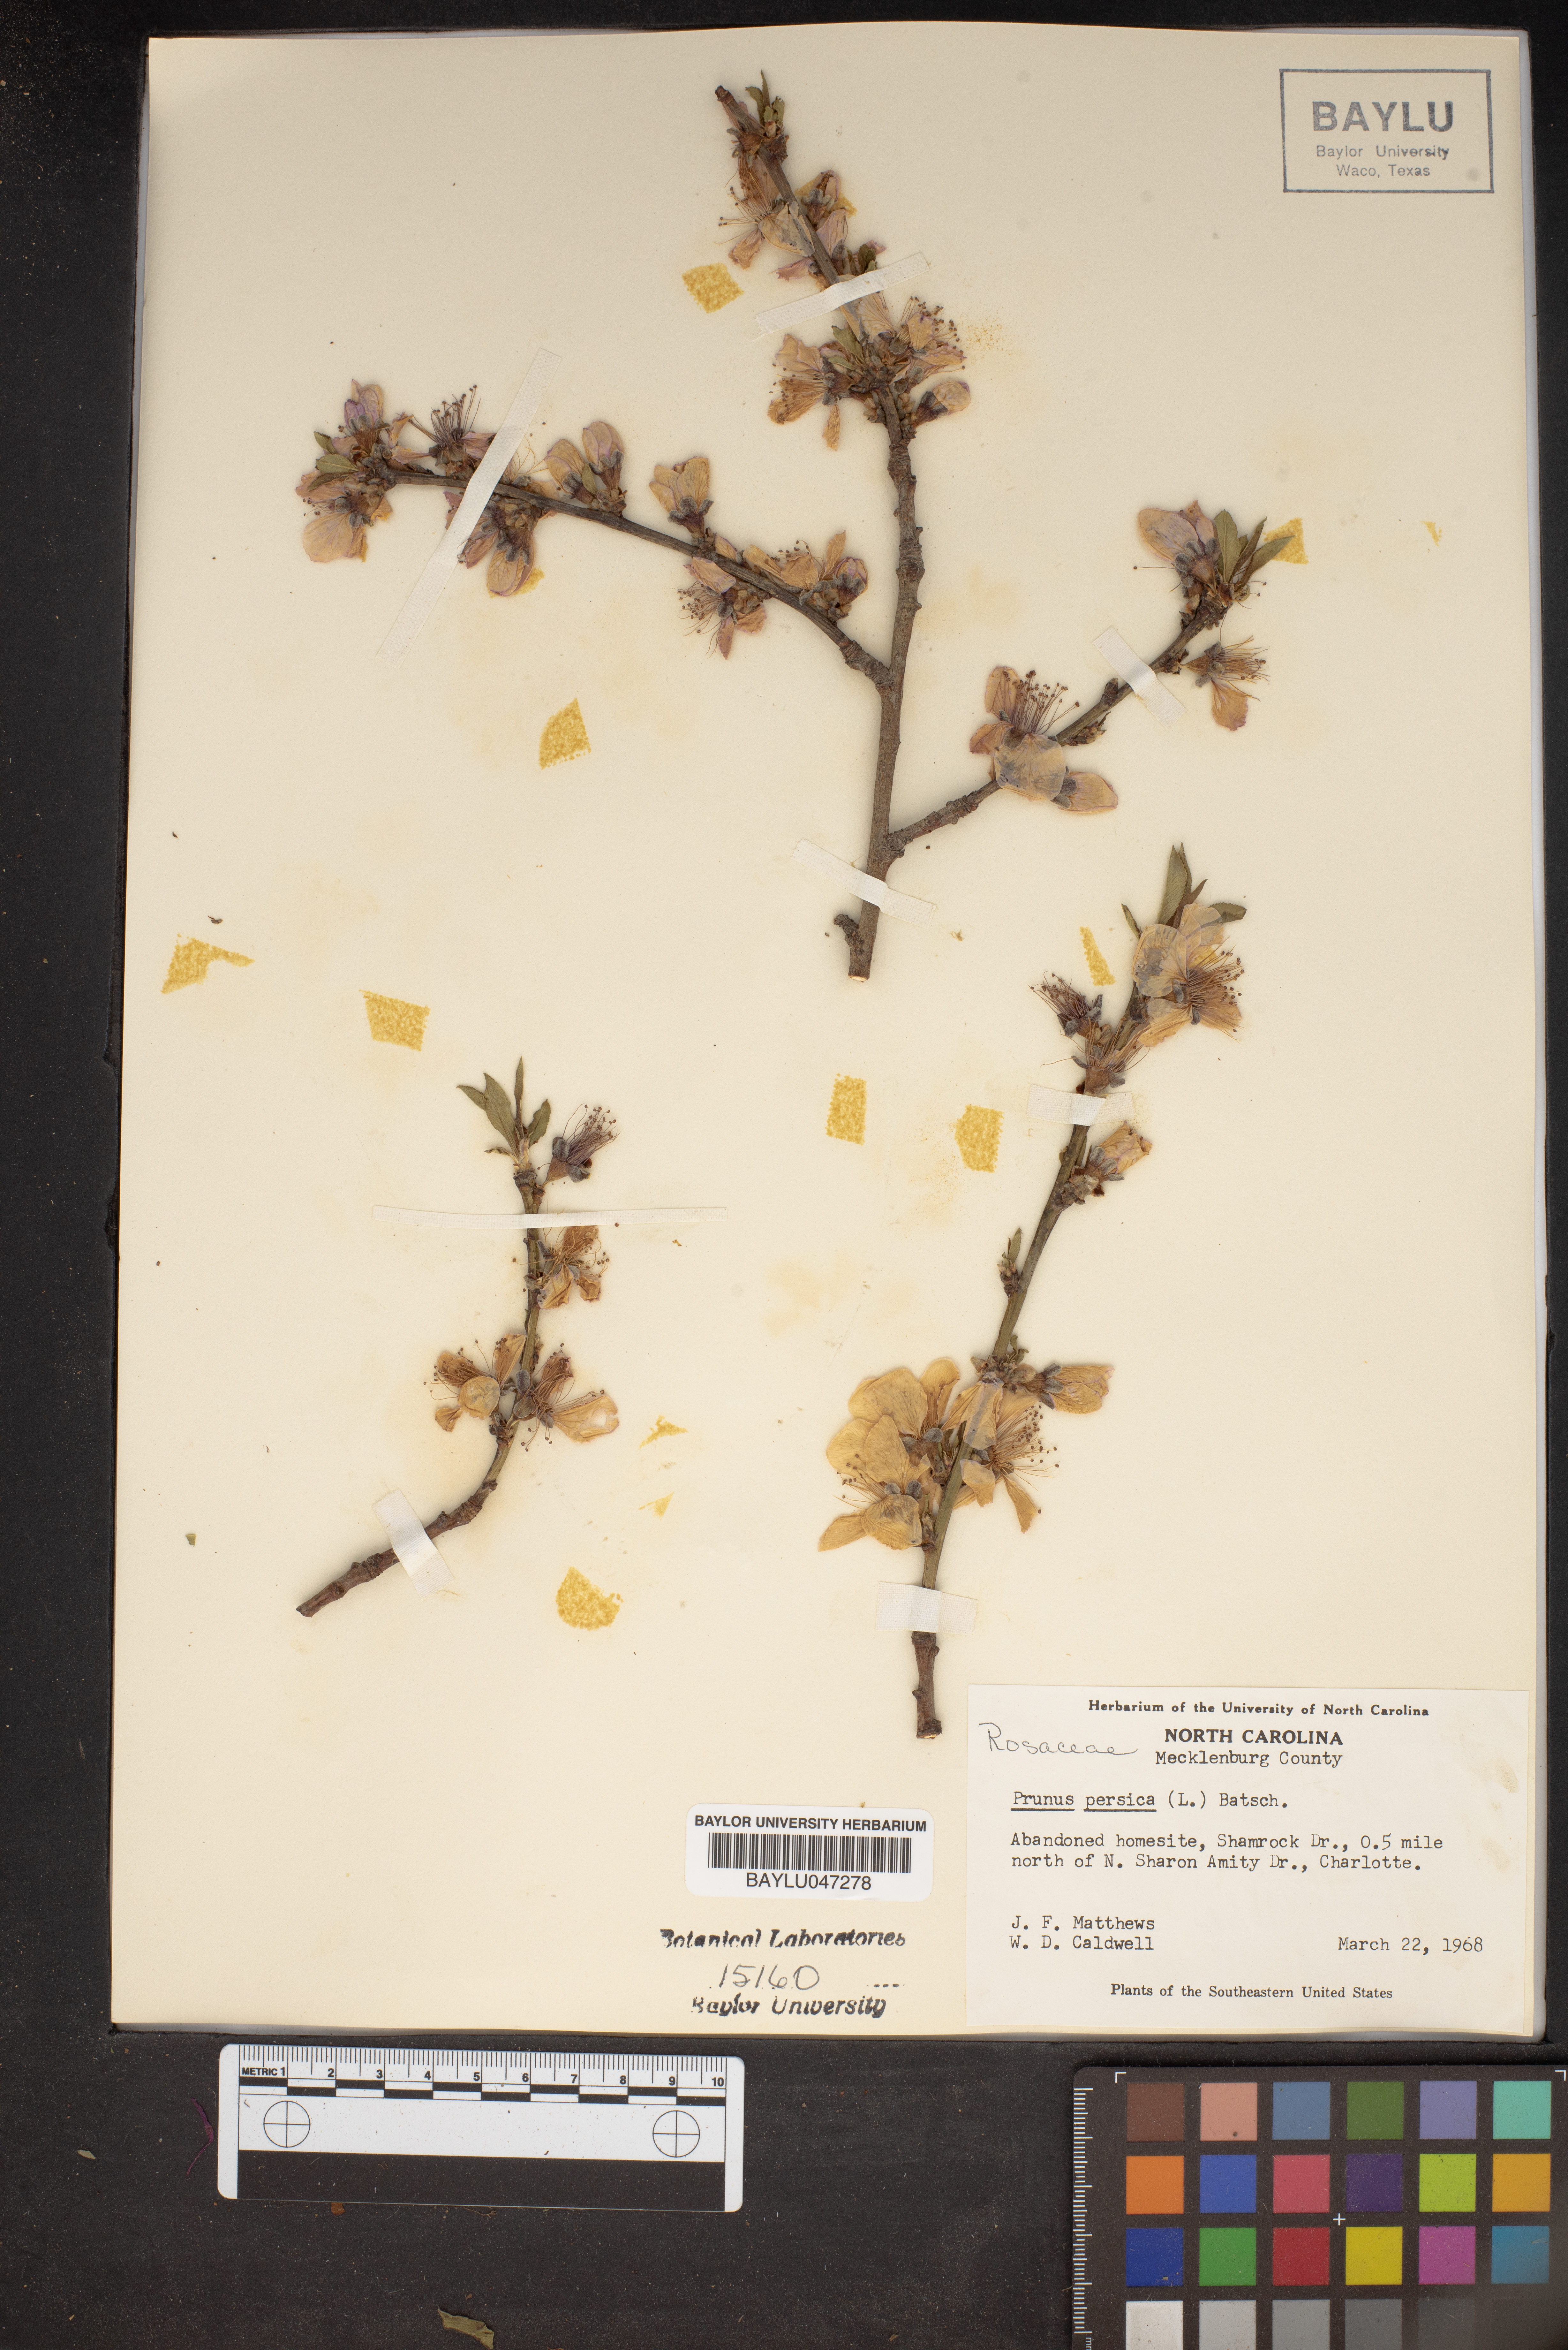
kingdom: Plantae
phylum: Tracheophyta
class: Magnoliopsida
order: Rosales
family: Rosaceae
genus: Prunus
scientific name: Prunus persica
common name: Peach
